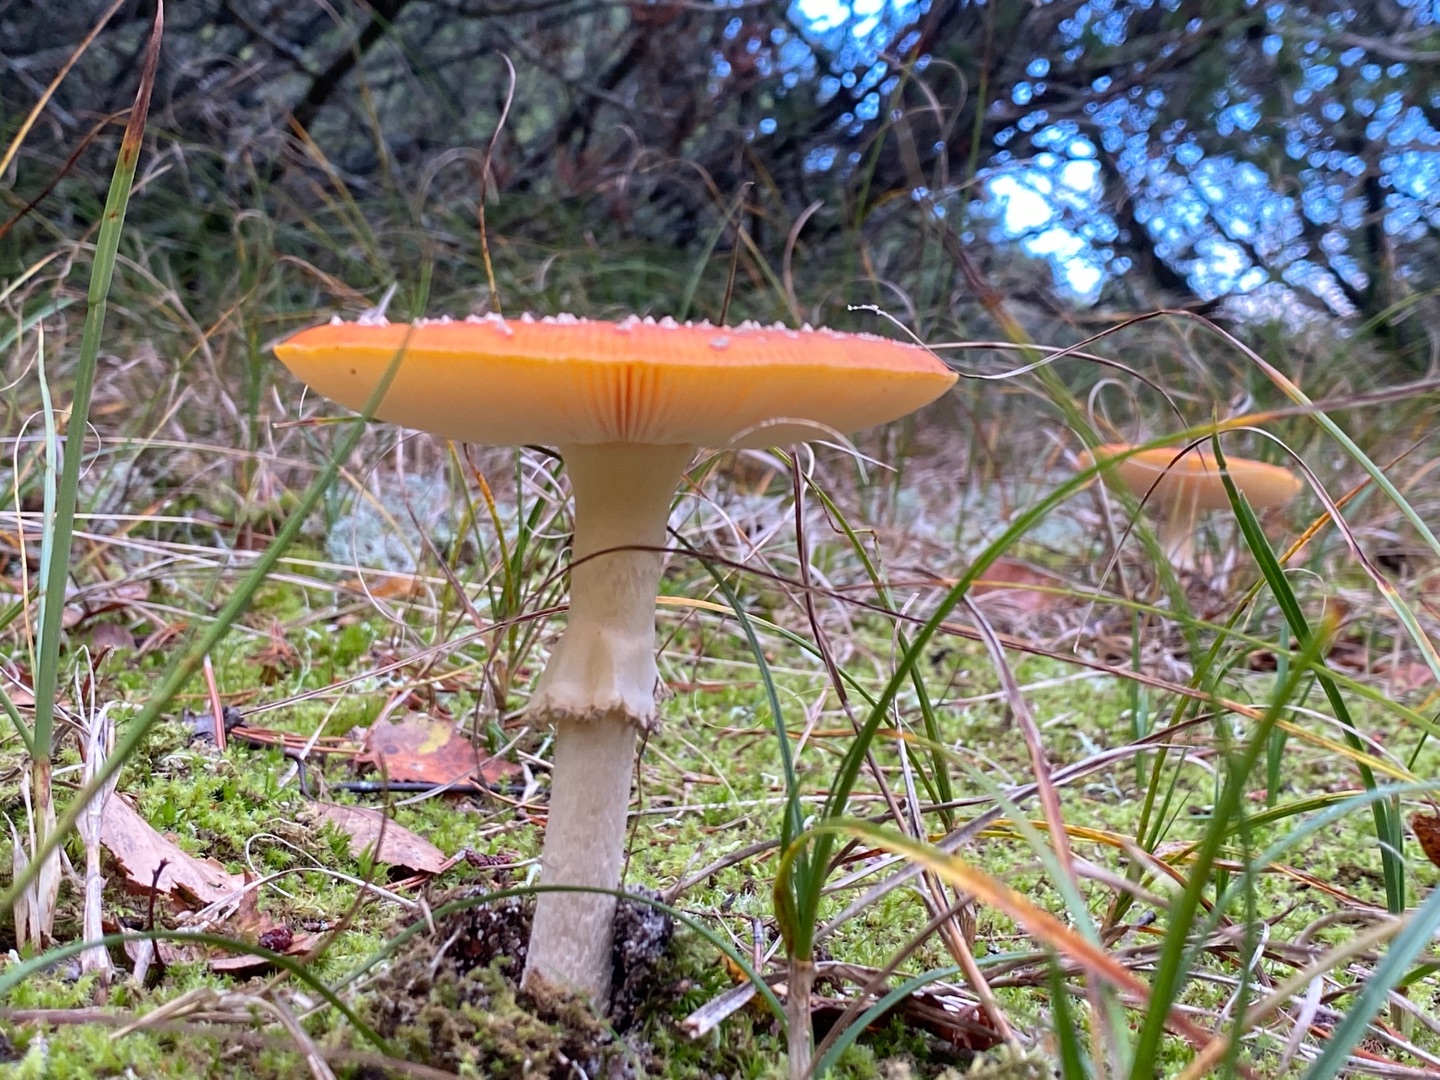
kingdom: Fungi
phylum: Basidiomycota
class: Agaricomycetes
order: Agaricales
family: Amanitaceae
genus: Amanita
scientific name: Amanita muscaria
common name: Rød fluesvamp
